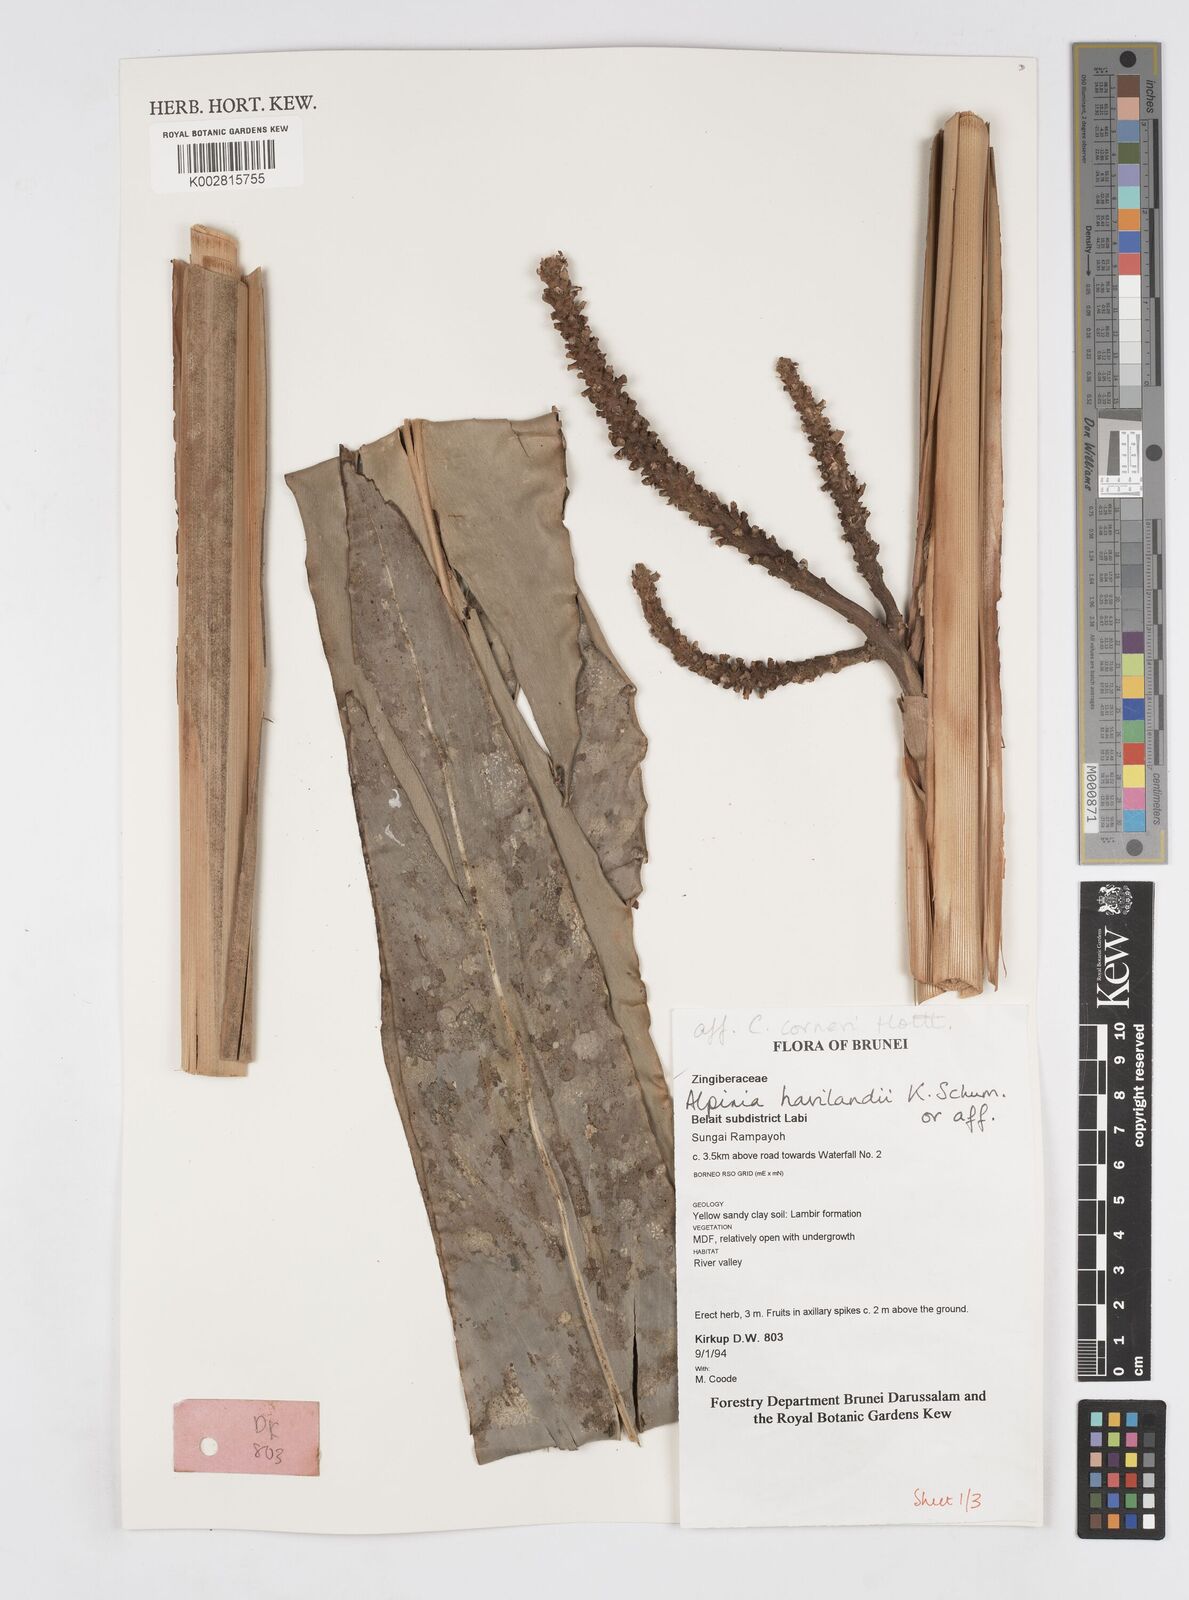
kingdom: Plantae
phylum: Tracheophyta
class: Liliopsida
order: Zingiberales
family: Zingiberaceae
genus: Alpinia
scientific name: Alpinia havilandii
